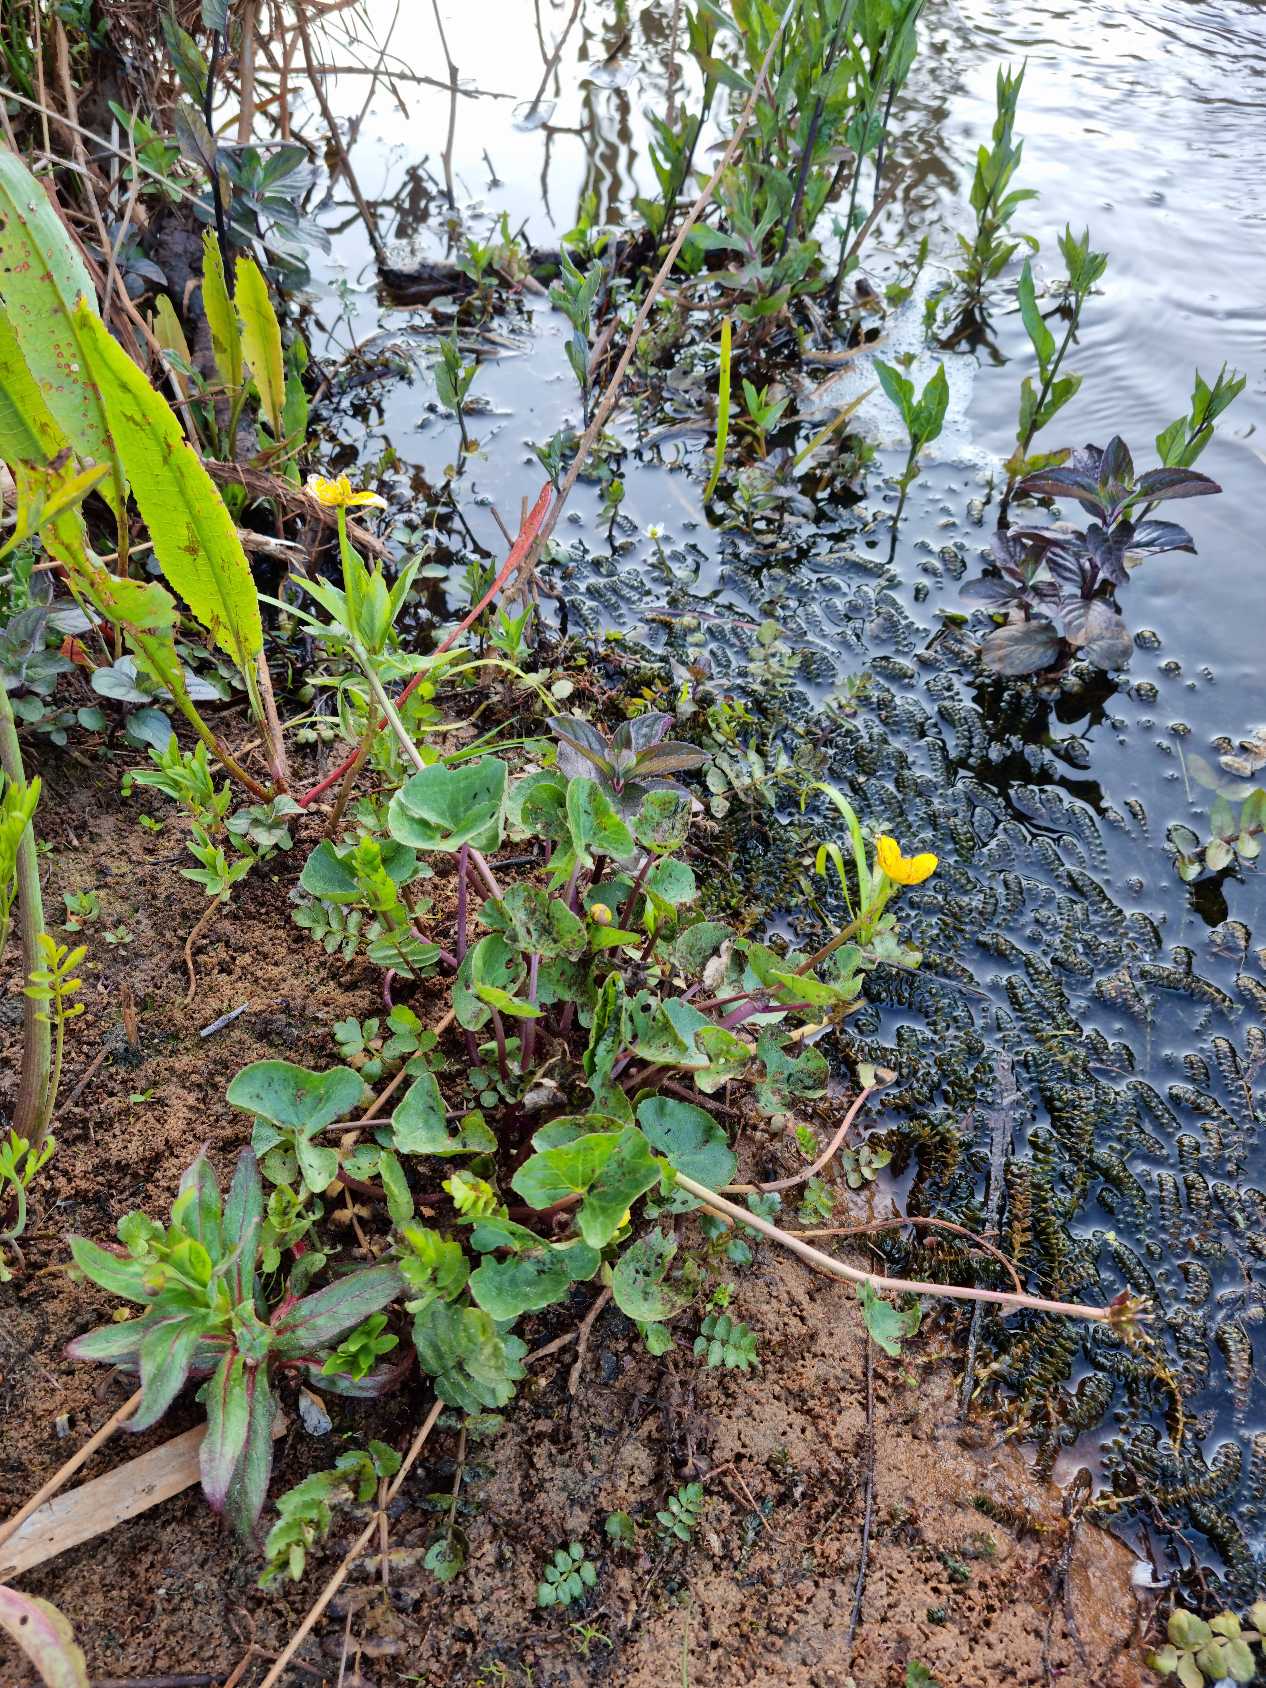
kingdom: Plantae
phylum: Tracheophyta
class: Magnoliopsida
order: Ranunculales
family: Ranunculaceae
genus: Caltha
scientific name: Caltha palustris
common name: Eng-kabbeleje
